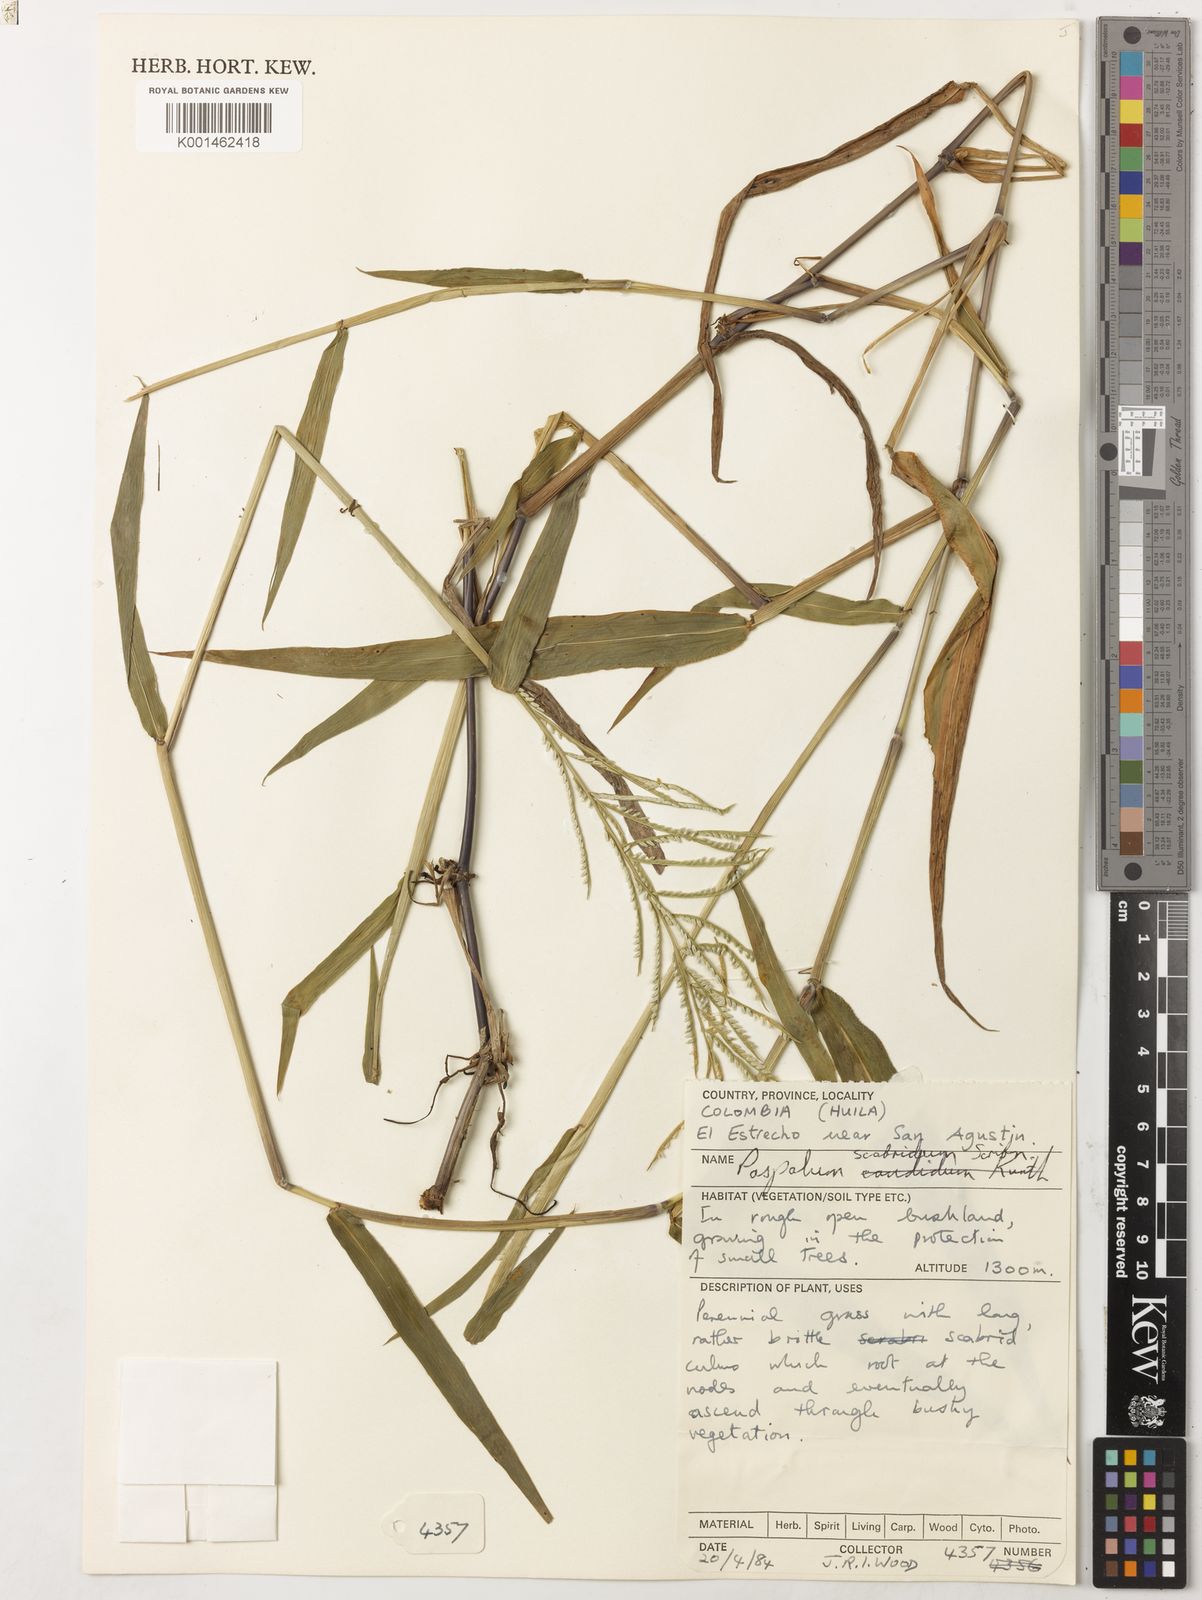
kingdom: Plantae
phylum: Tracheophyta
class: Liliopsida
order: Poales
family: Poaceae
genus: Paspalum
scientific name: Paspalum candidum
